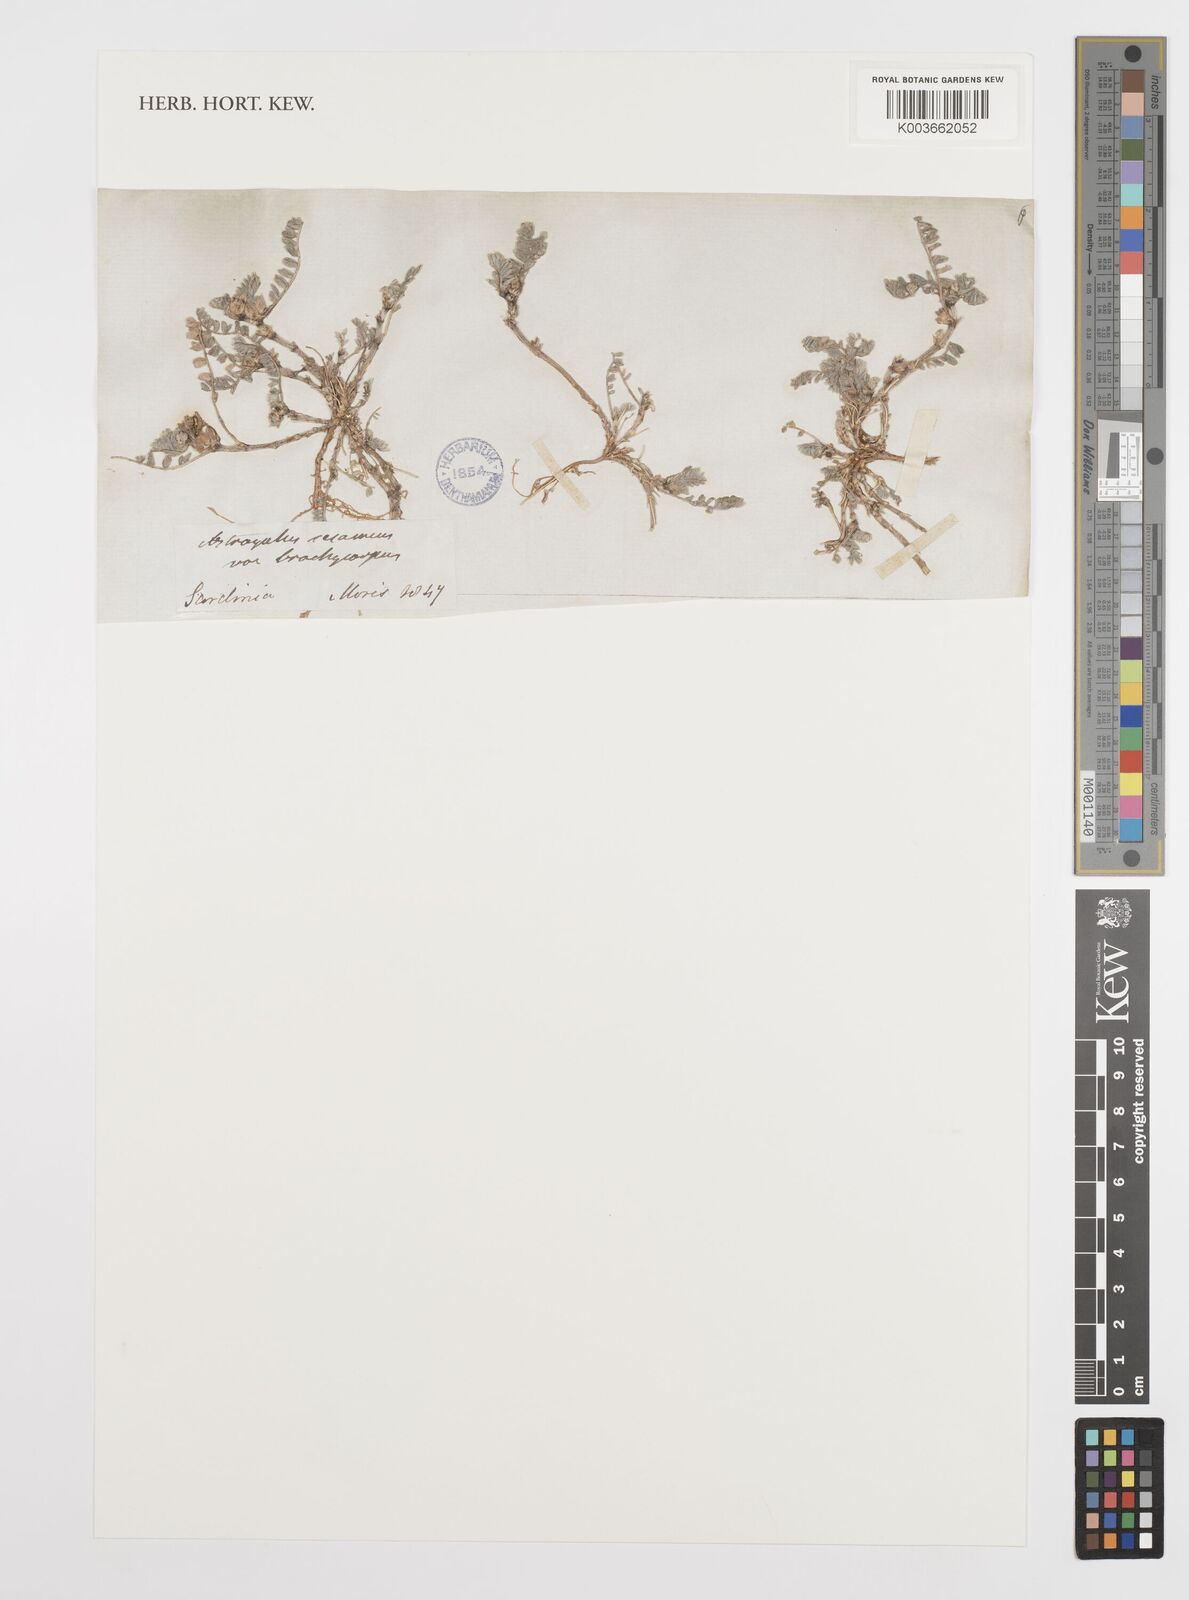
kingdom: Plantae
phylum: Tracheophyta
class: Magnoliopsida
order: Fabales
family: Fabaceae
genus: Astragalus
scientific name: Astragalus sesameus
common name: Purple milk-vetch
